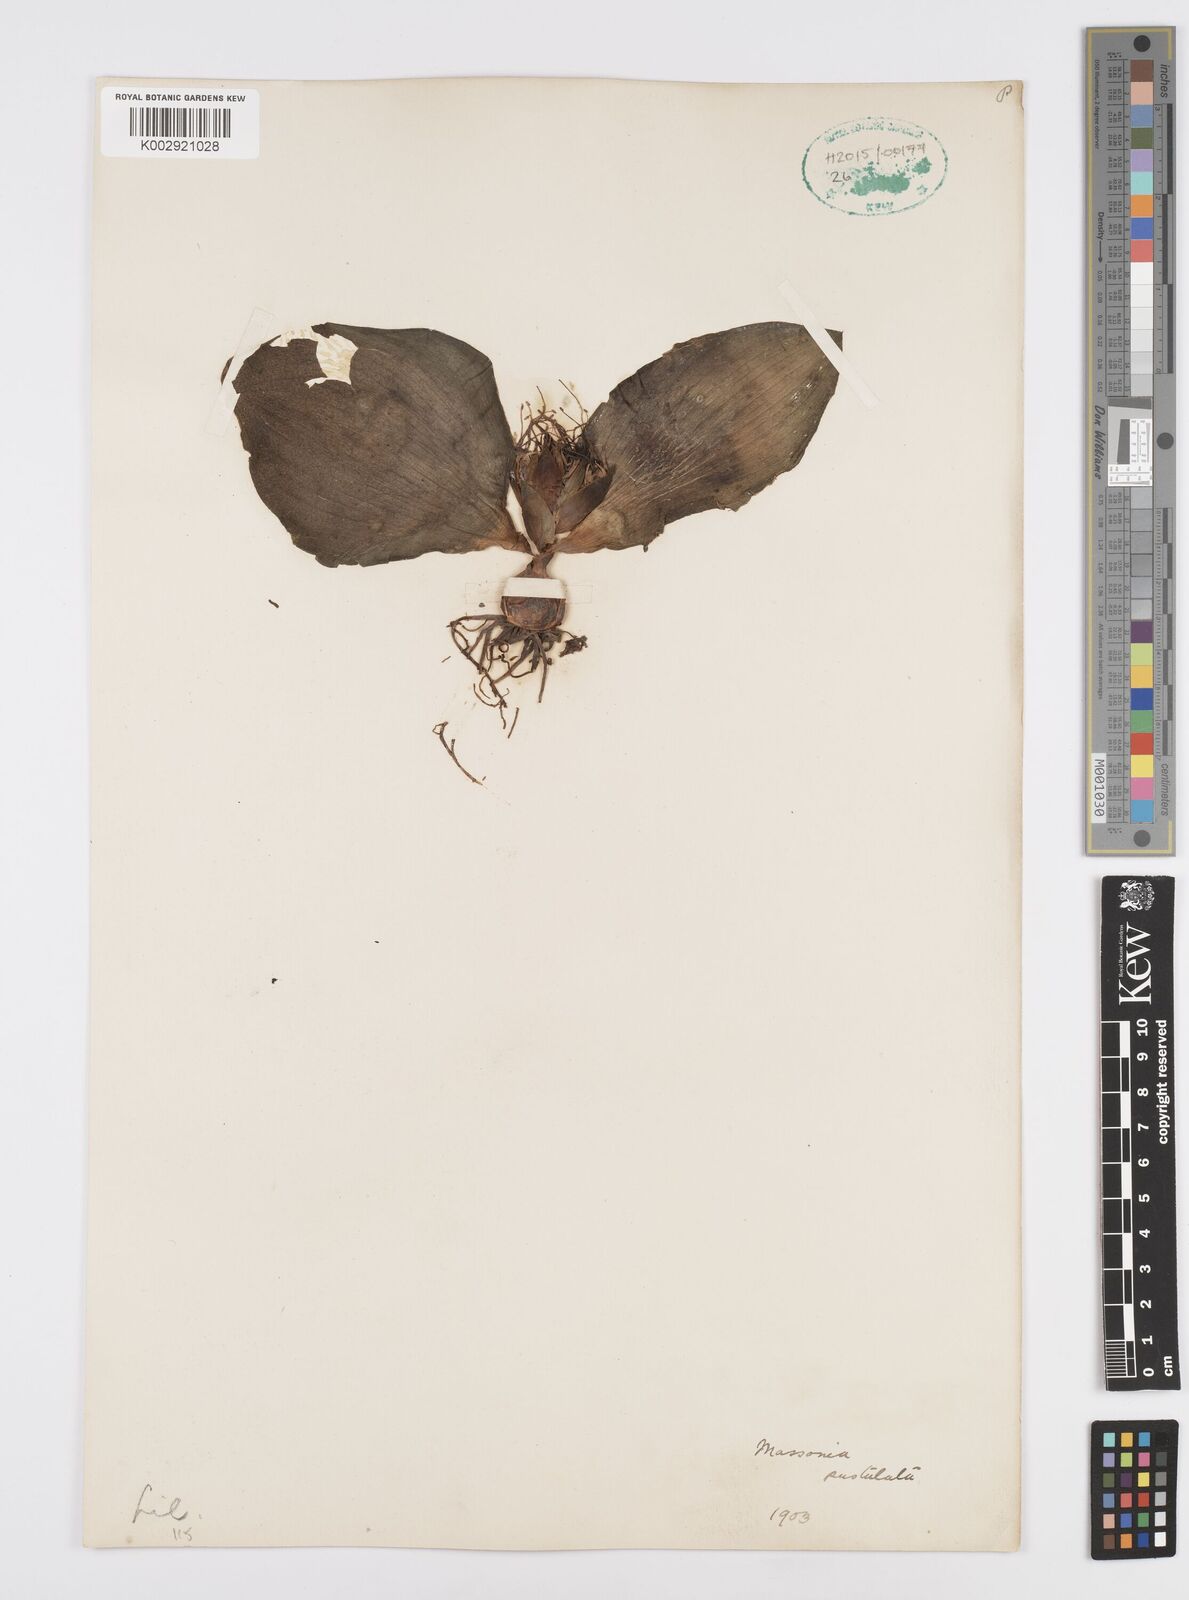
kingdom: Plantae
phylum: Tracheophyta
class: Liliopsida
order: Asparagales
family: Asparagaceae
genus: Massonia
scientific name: Massonia
